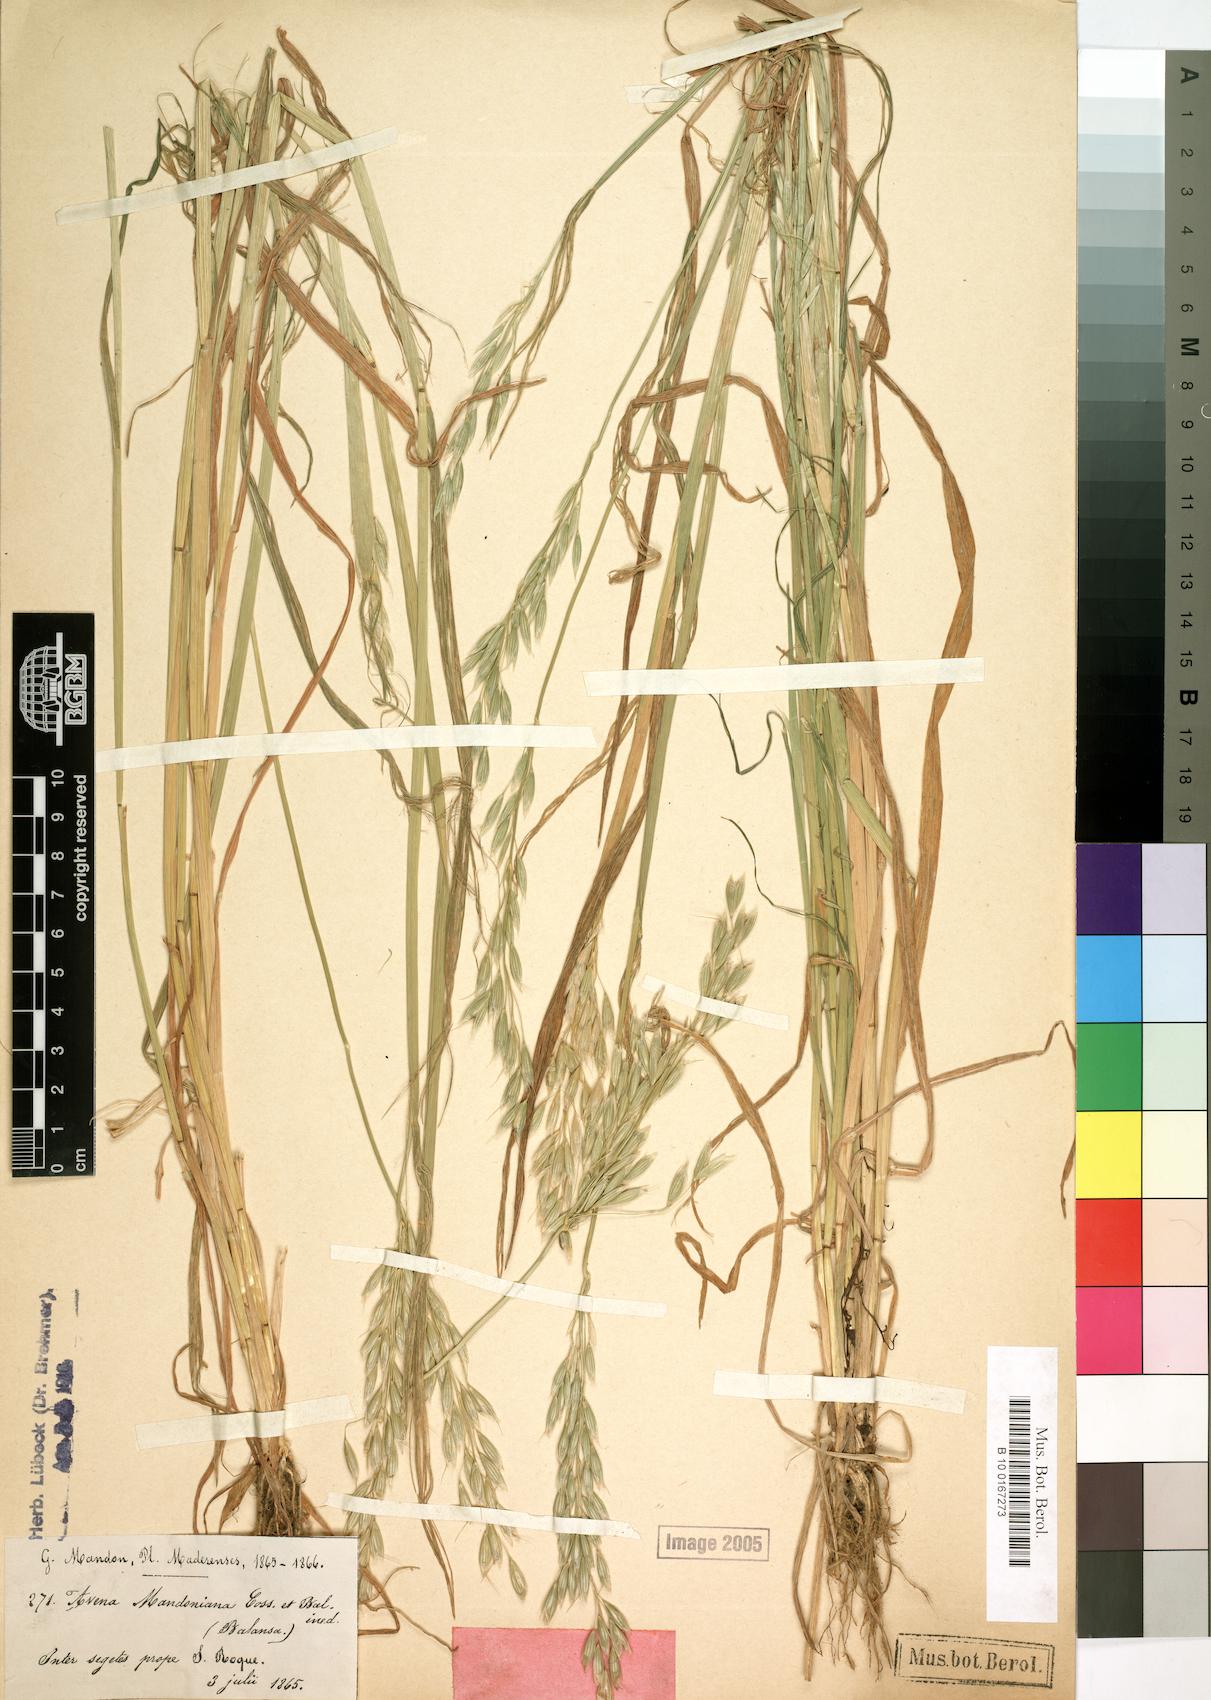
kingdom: Plantae
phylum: Tracheophyta
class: Liliopsida
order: Poales
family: Poaceae
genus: Avena
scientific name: Avena brevis
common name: Short oat
